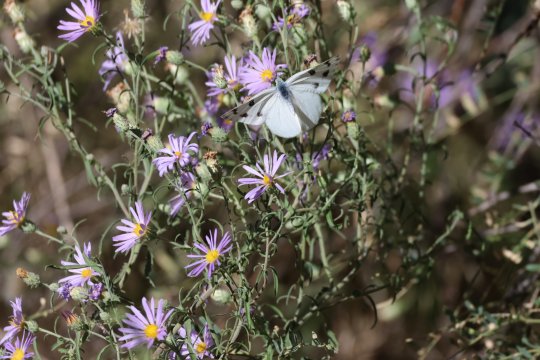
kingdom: Animalia
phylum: Arthropoda
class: Insecta
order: Lepidoptera
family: Pieridae
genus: Pontia
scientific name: Pontia protodice
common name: Checkered White
